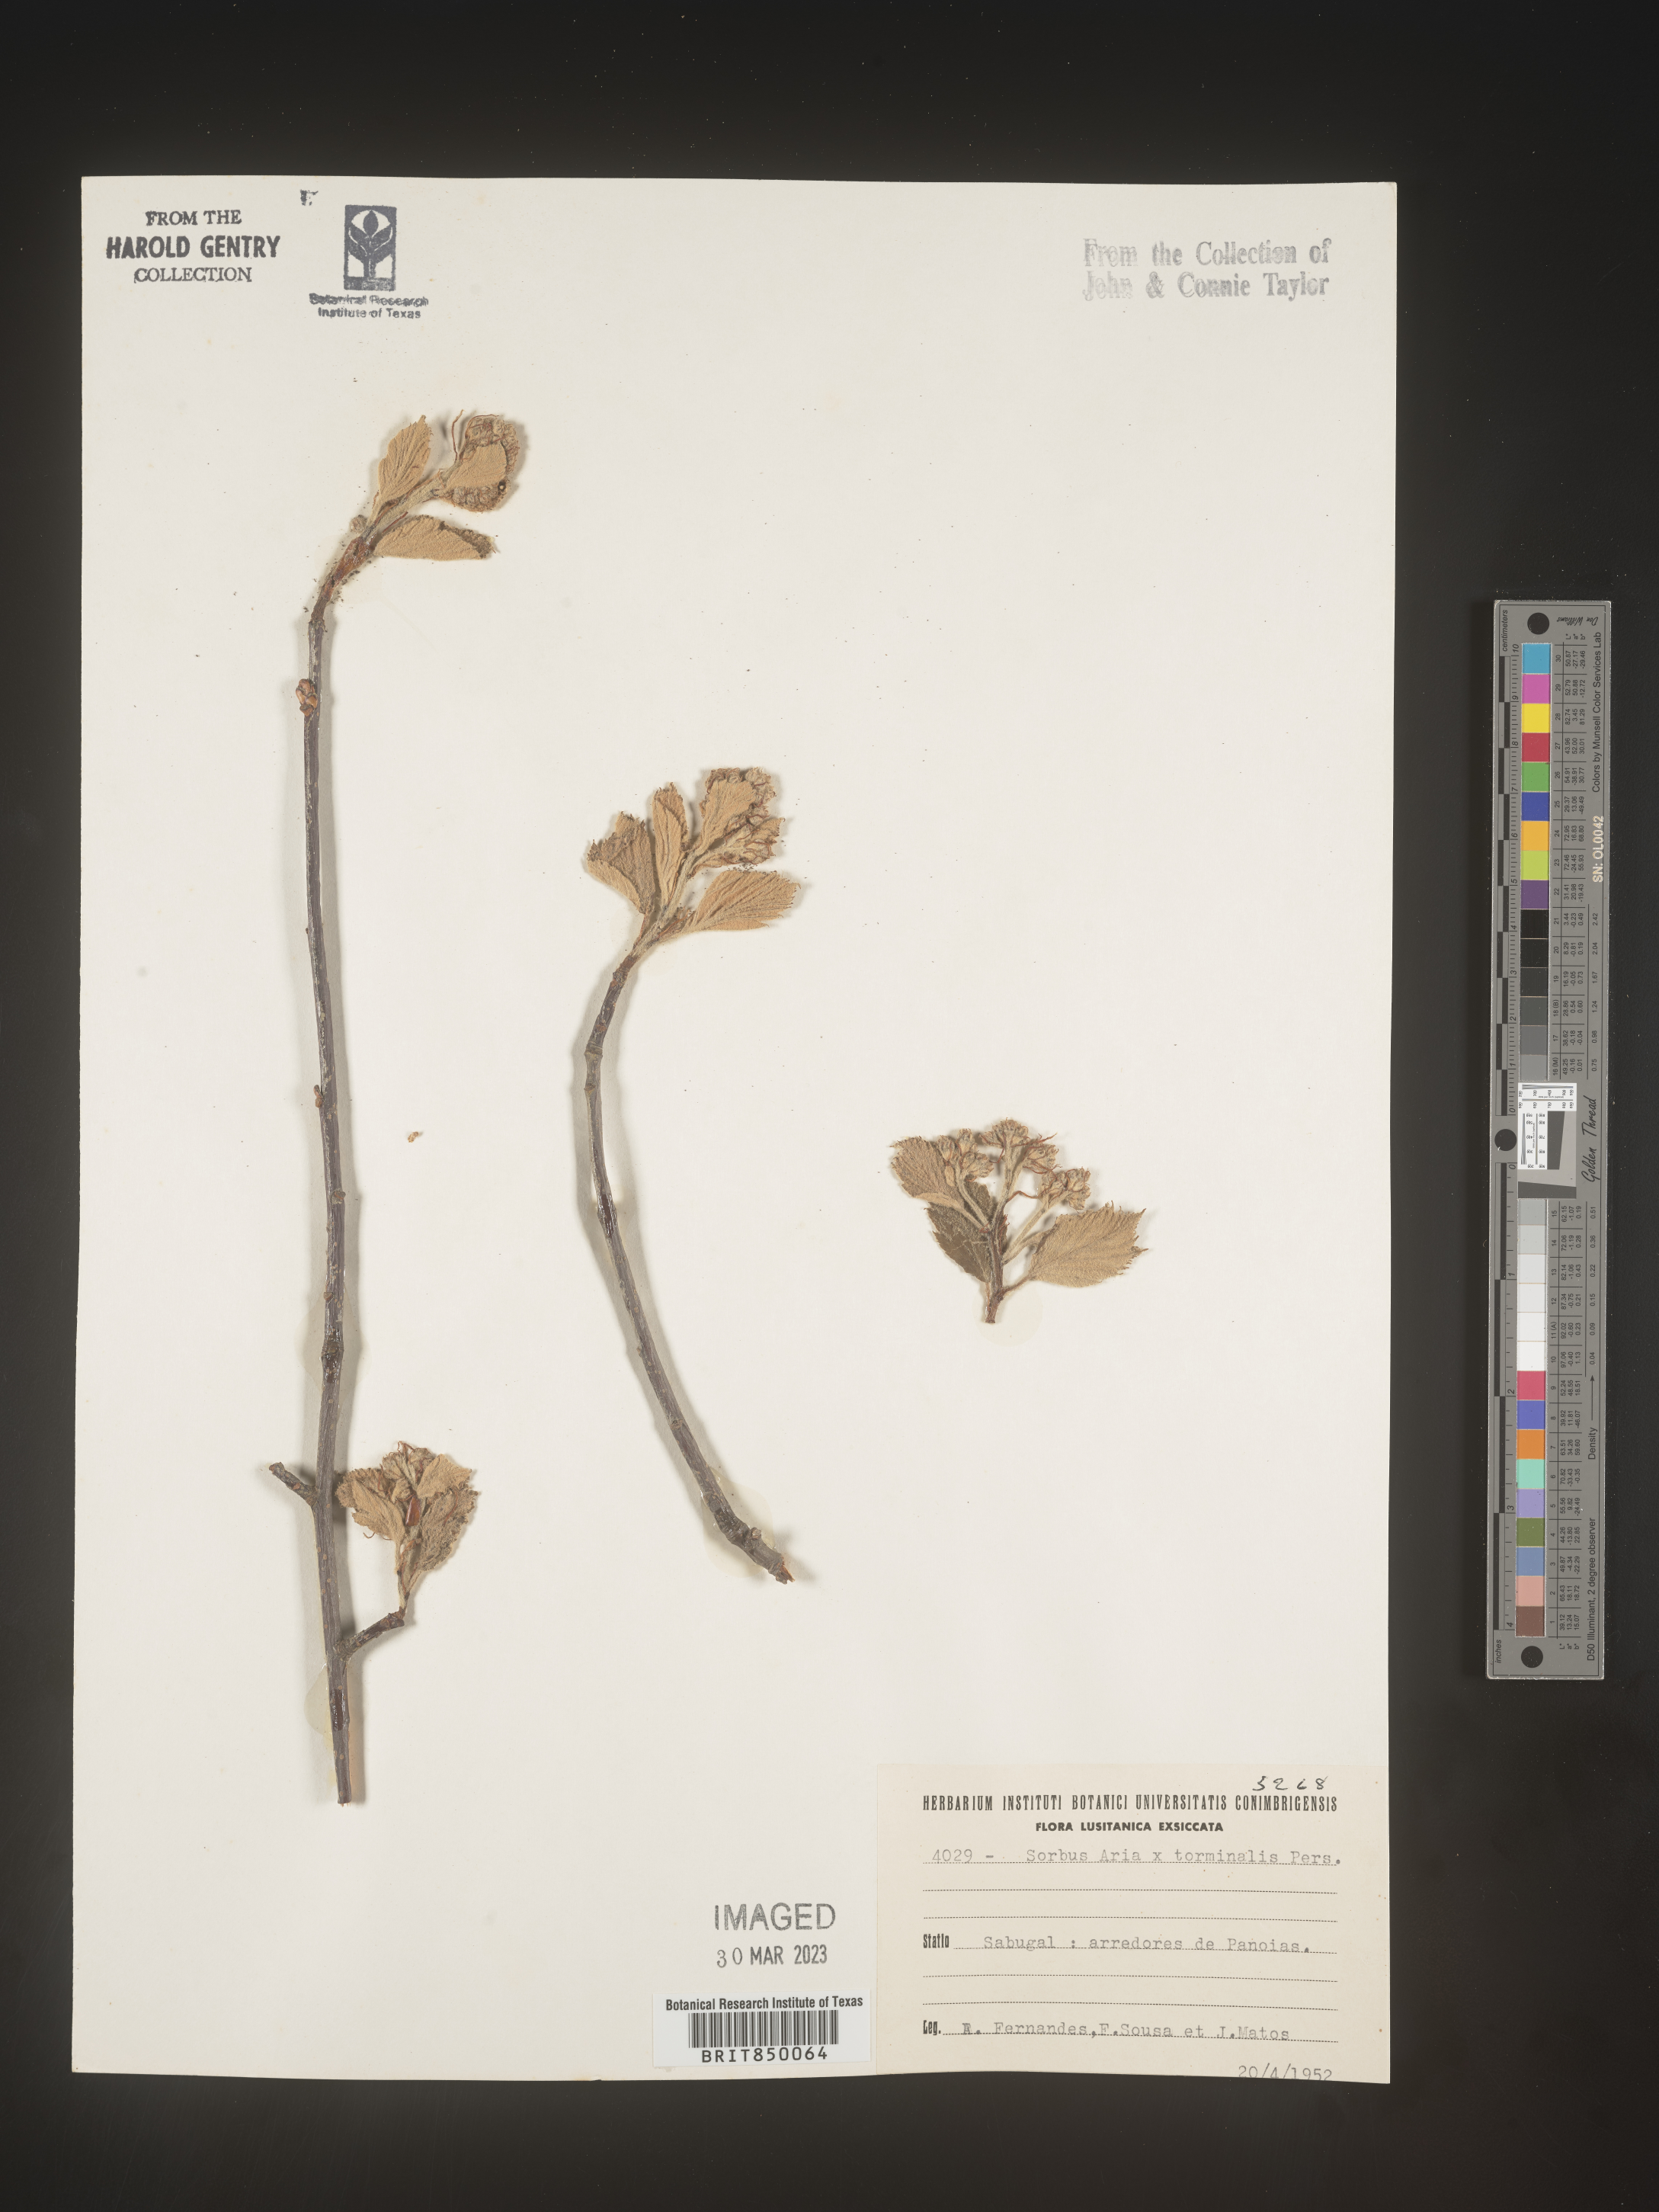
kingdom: Plantae
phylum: Tracheophyta
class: Magnoliopsida
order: Rosales
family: Rosaceae
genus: Sorbus
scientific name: Sorbus
